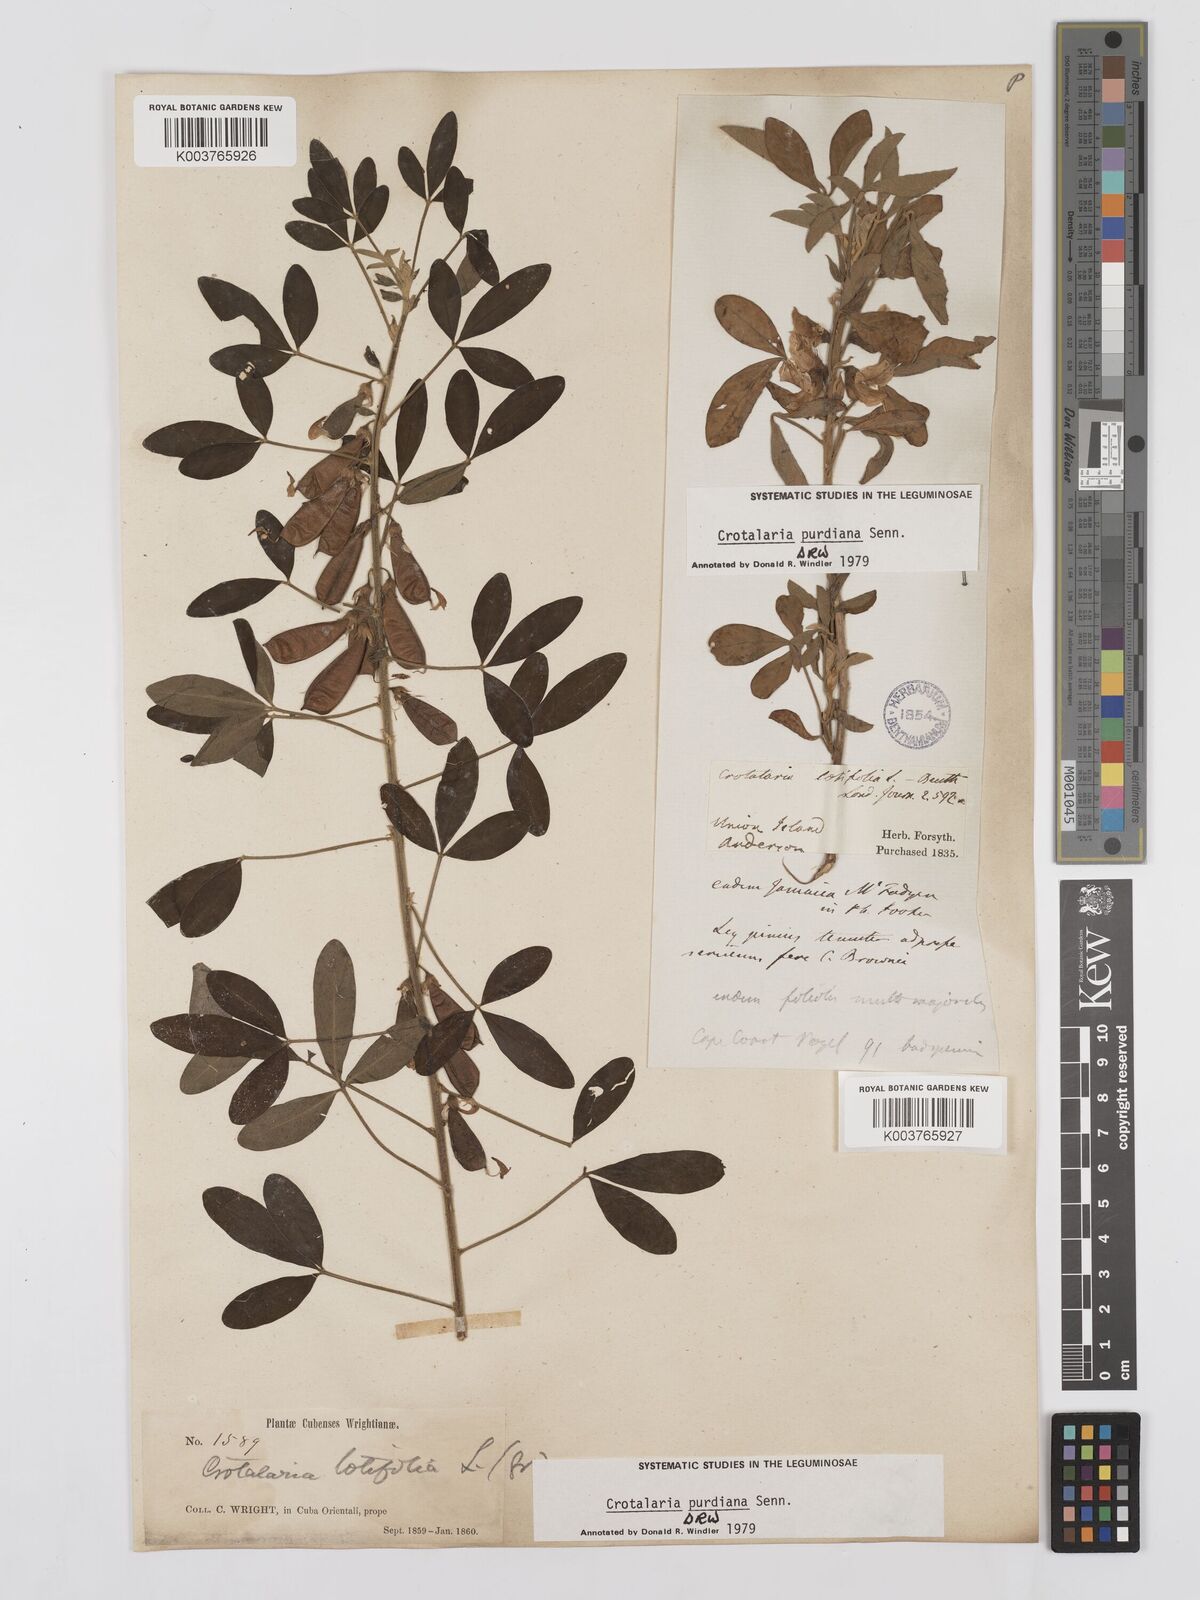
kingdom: Plantae
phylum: Tracheophyta
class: Magnoliopsida
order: Fabales
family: Fabaceae
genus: Crotalaria
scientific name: Crotalaria purdieana
